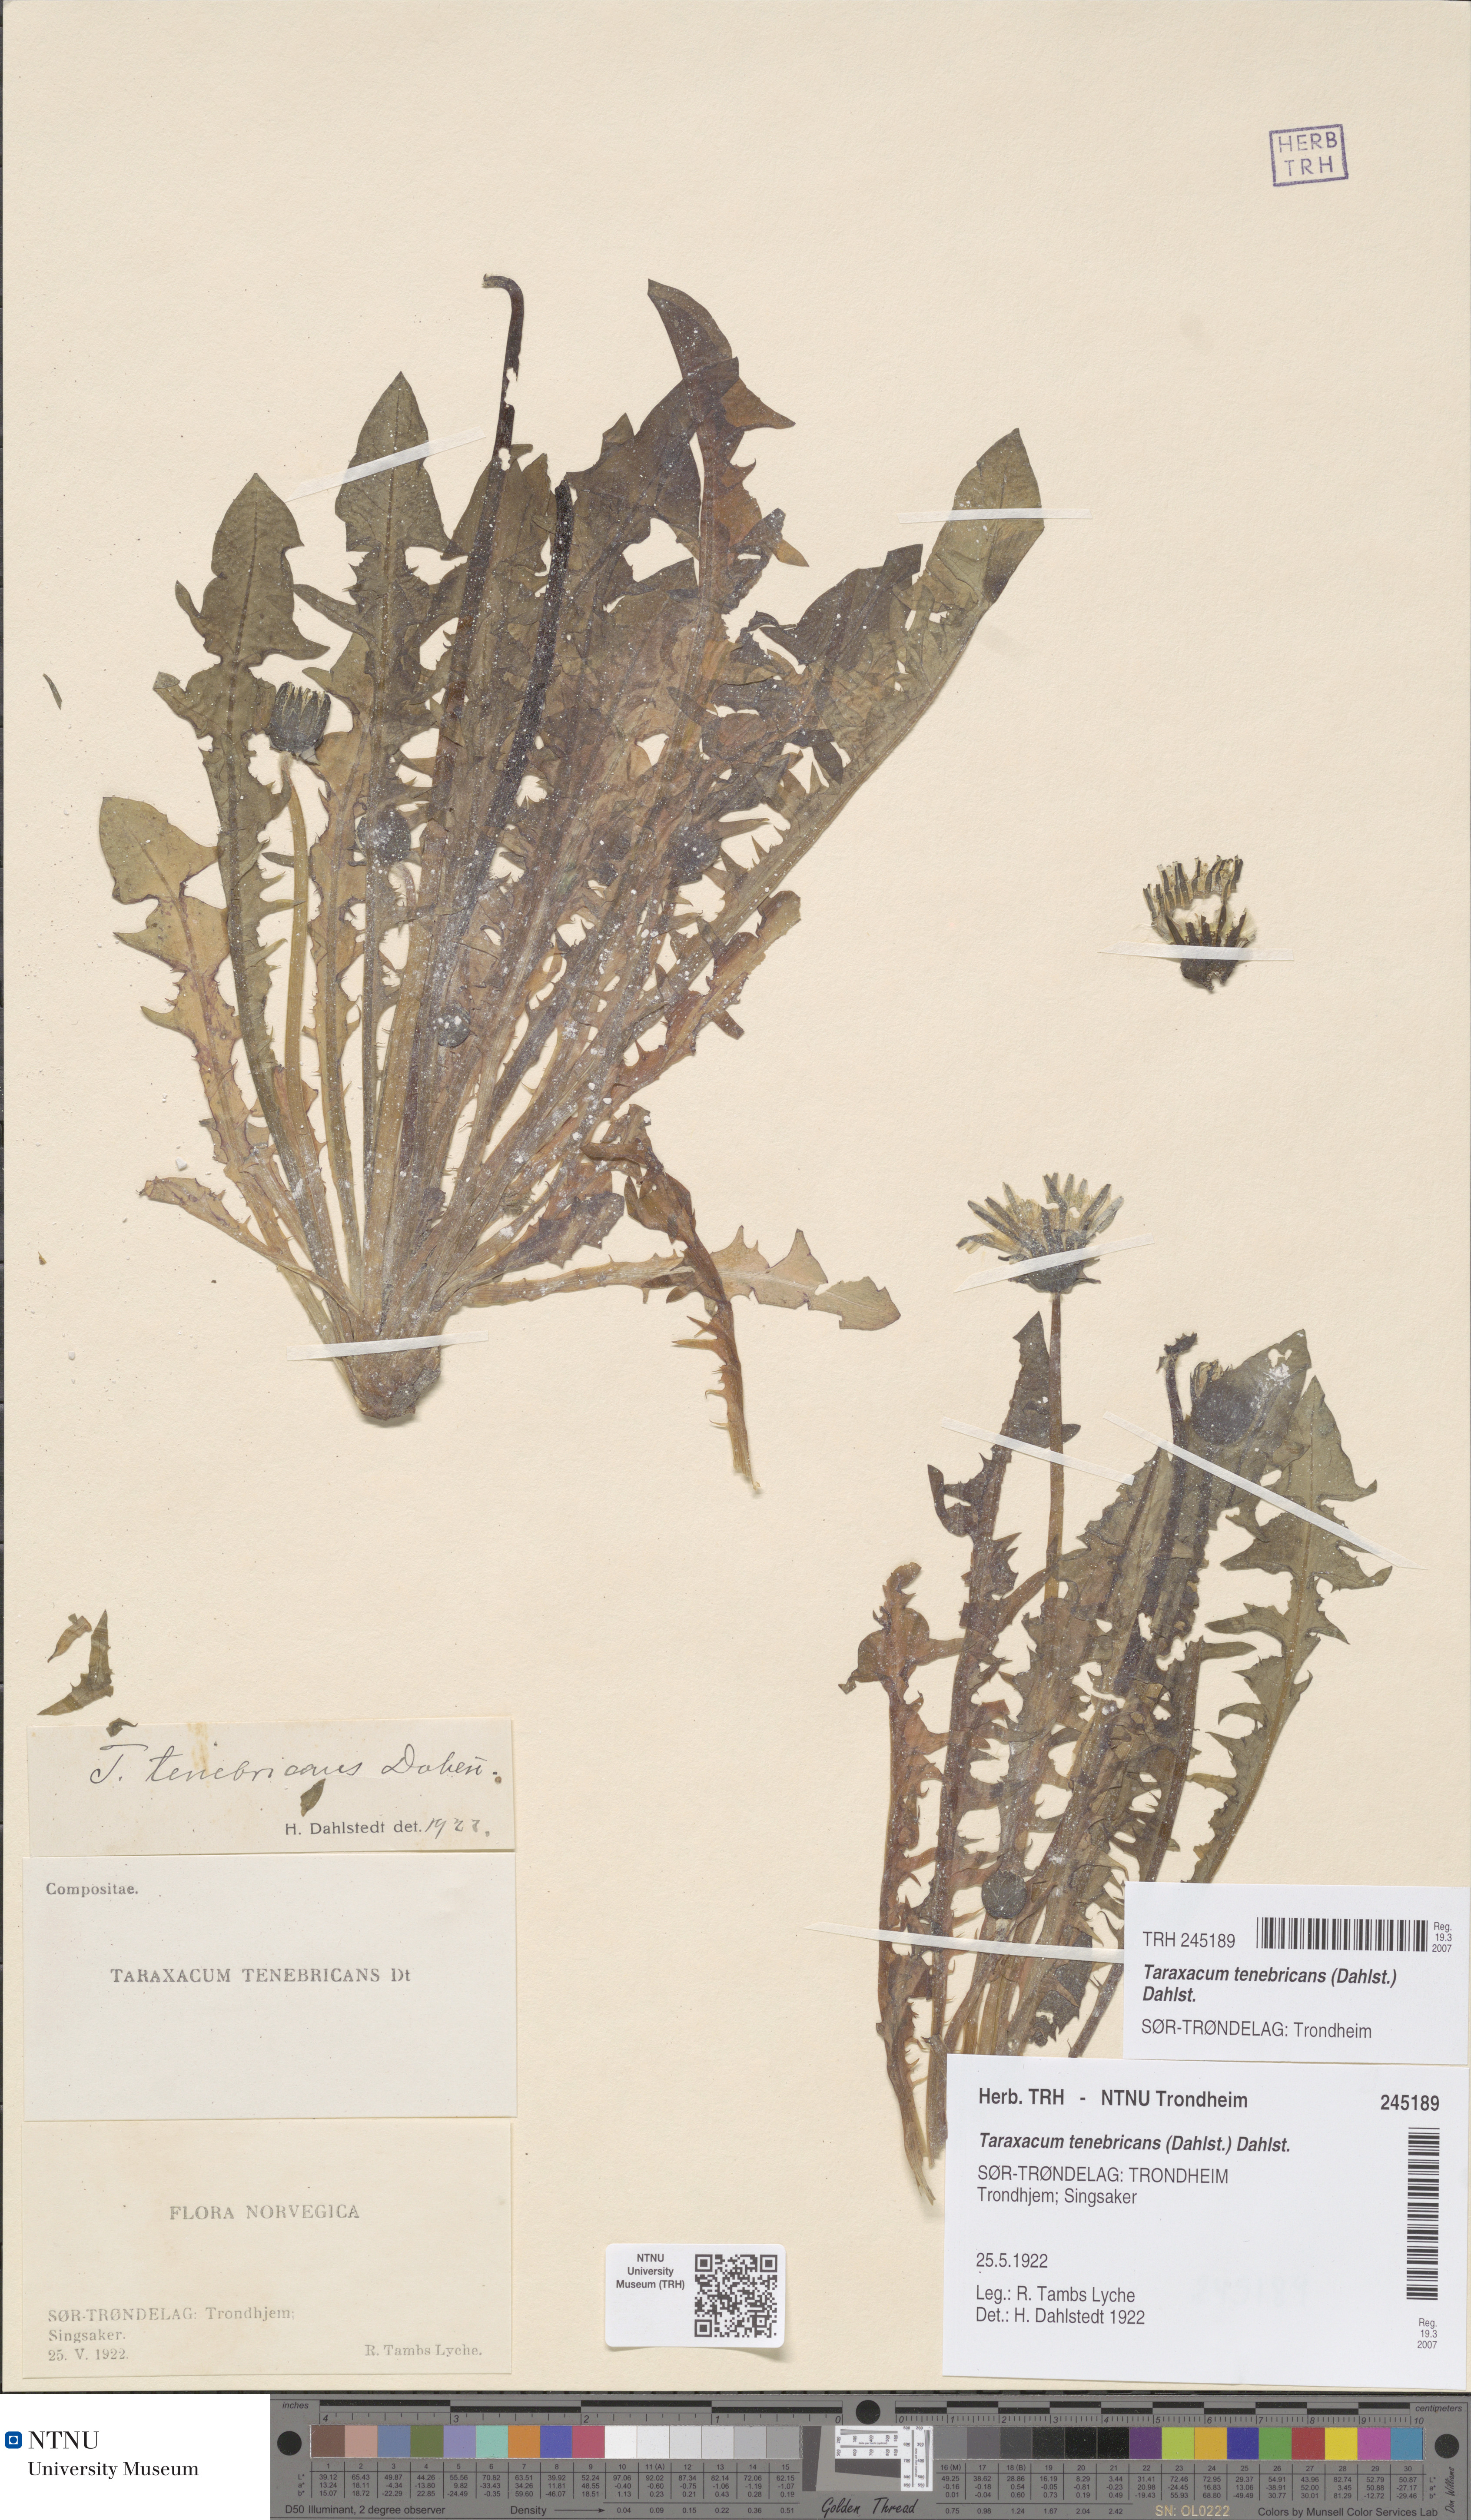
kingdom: Plantae
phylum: Tracheophyta
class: Magnoliopsida
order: Asterales
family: Asteraceae
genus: Taraxacum
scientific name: Taraxacum tenebricans
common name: Shiny-leaved dandelion
